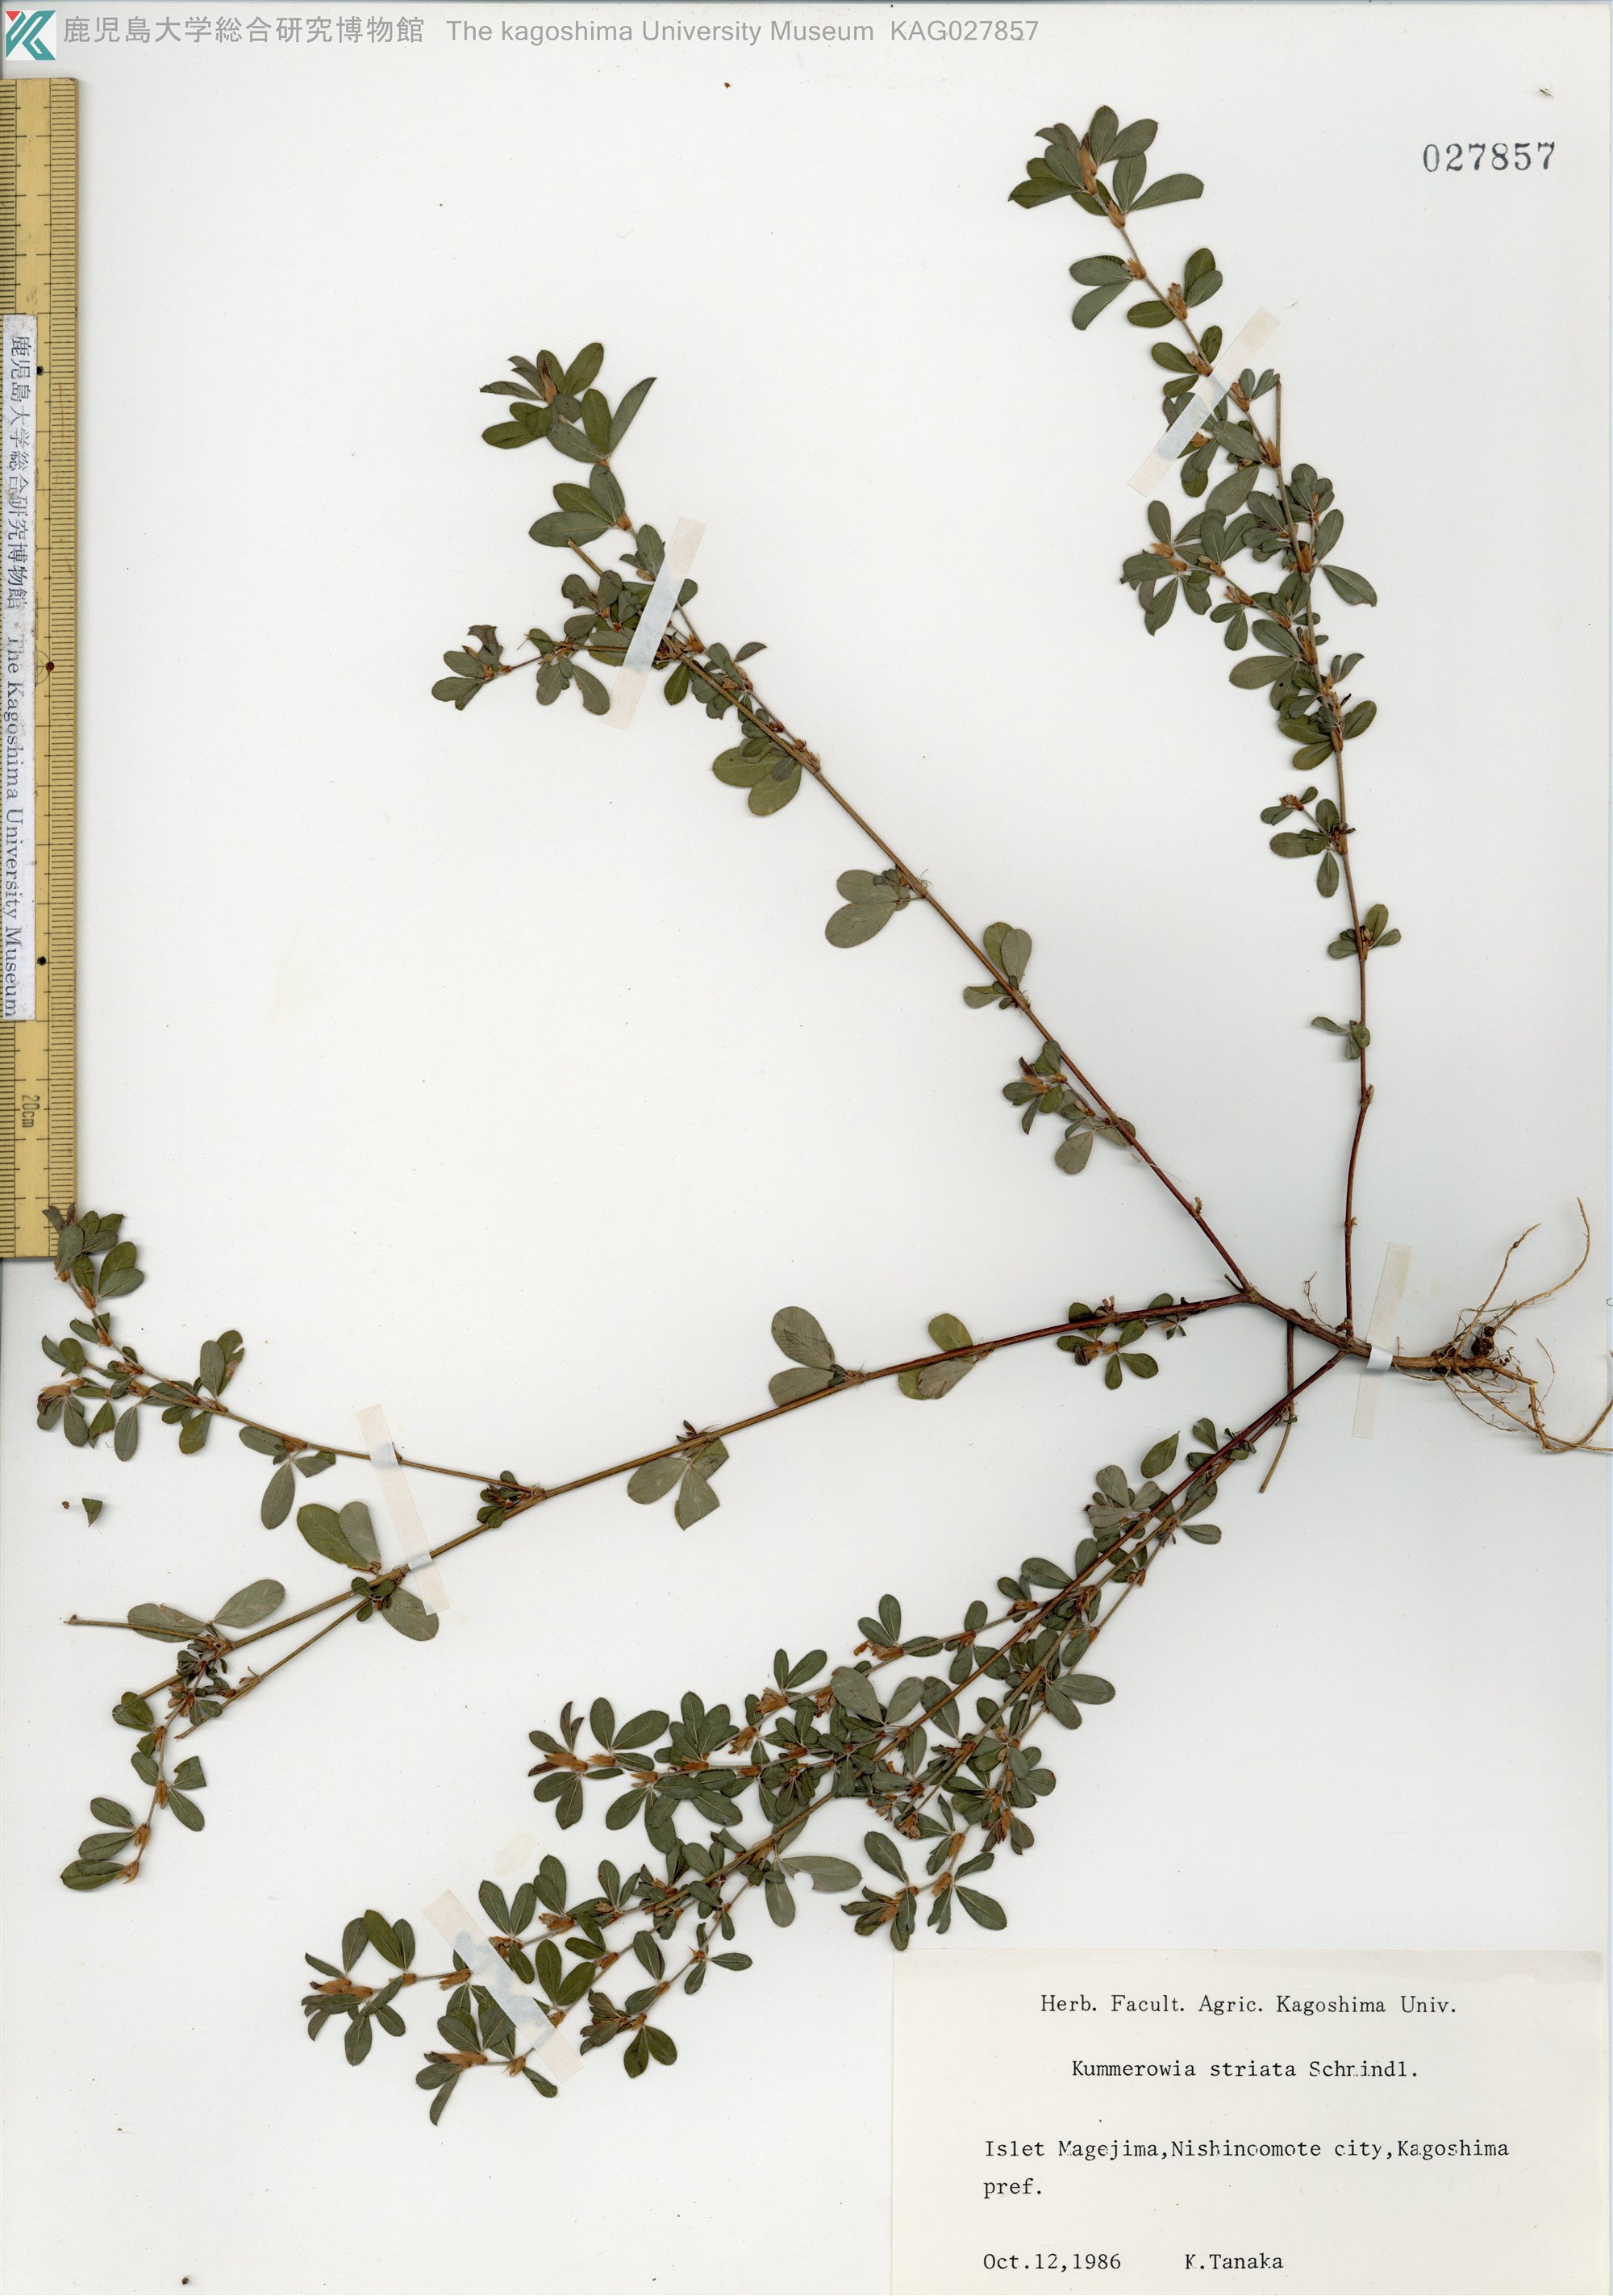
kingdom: Plantae
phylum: Tracheophyta
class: Magnoliopsida
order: Fabales
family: Fabaceae
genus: Kummerowia
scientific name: Kummerowia striata
